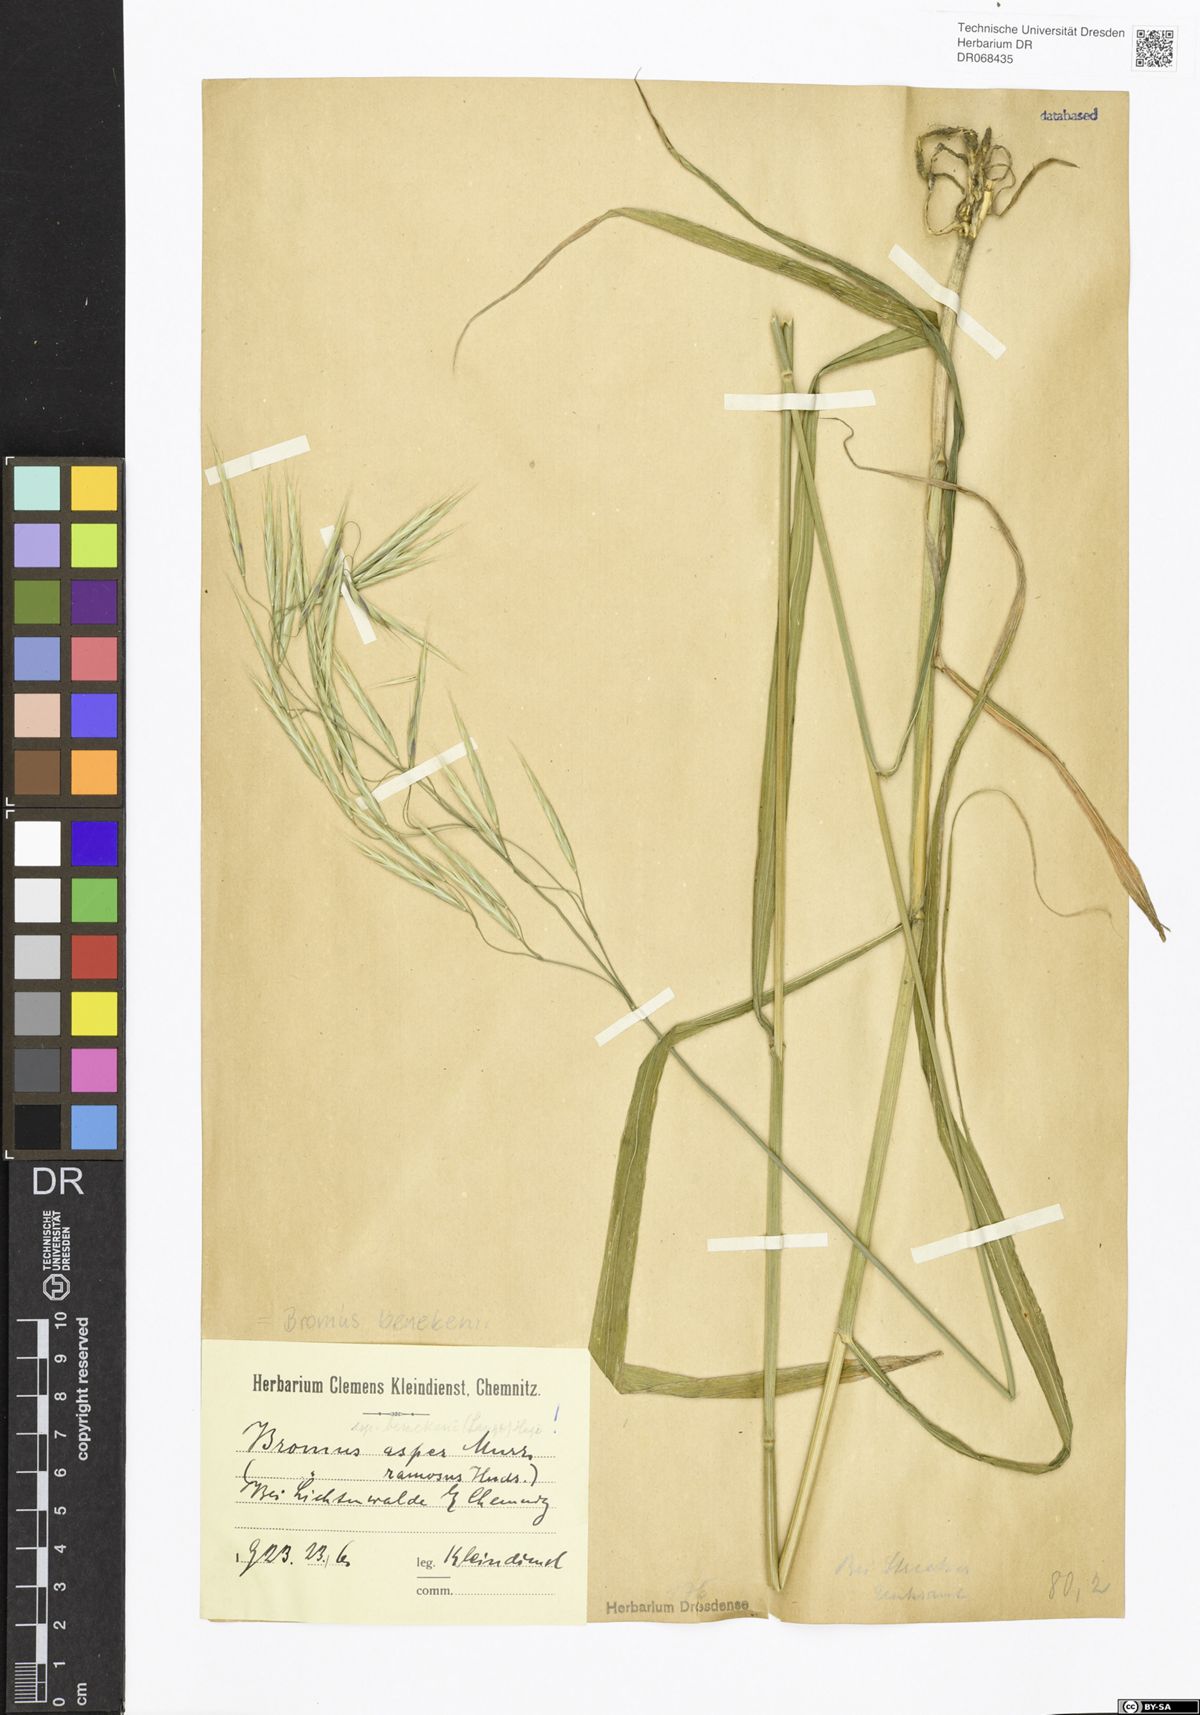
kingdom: Plantae
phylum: Tracheophyta
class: Liliopsida
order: Poales
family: Poaceae
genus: Bromus
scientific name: Bromus benekenii
